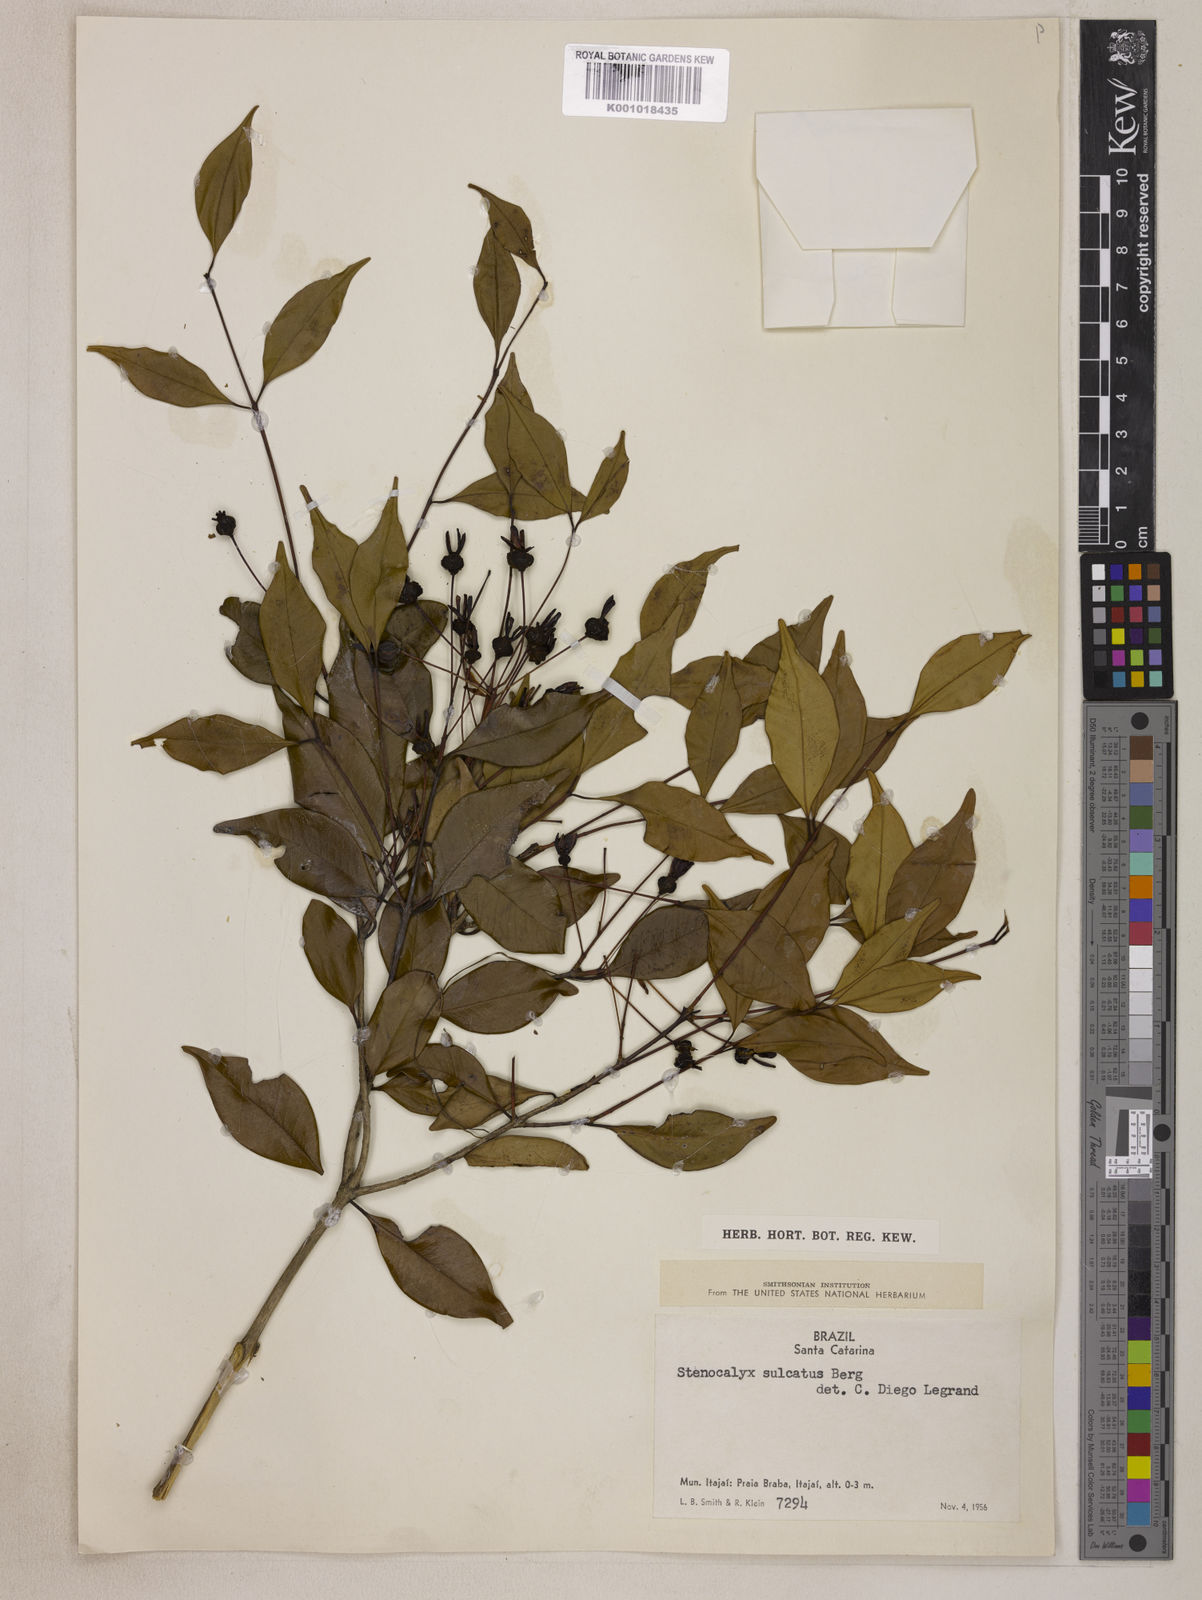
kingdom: Plantae
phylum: Tracheophyta
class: Magnoliopsida
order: Myrtales
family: Myrtaceae
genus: Eugenia
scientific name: Eugenia sulcata
